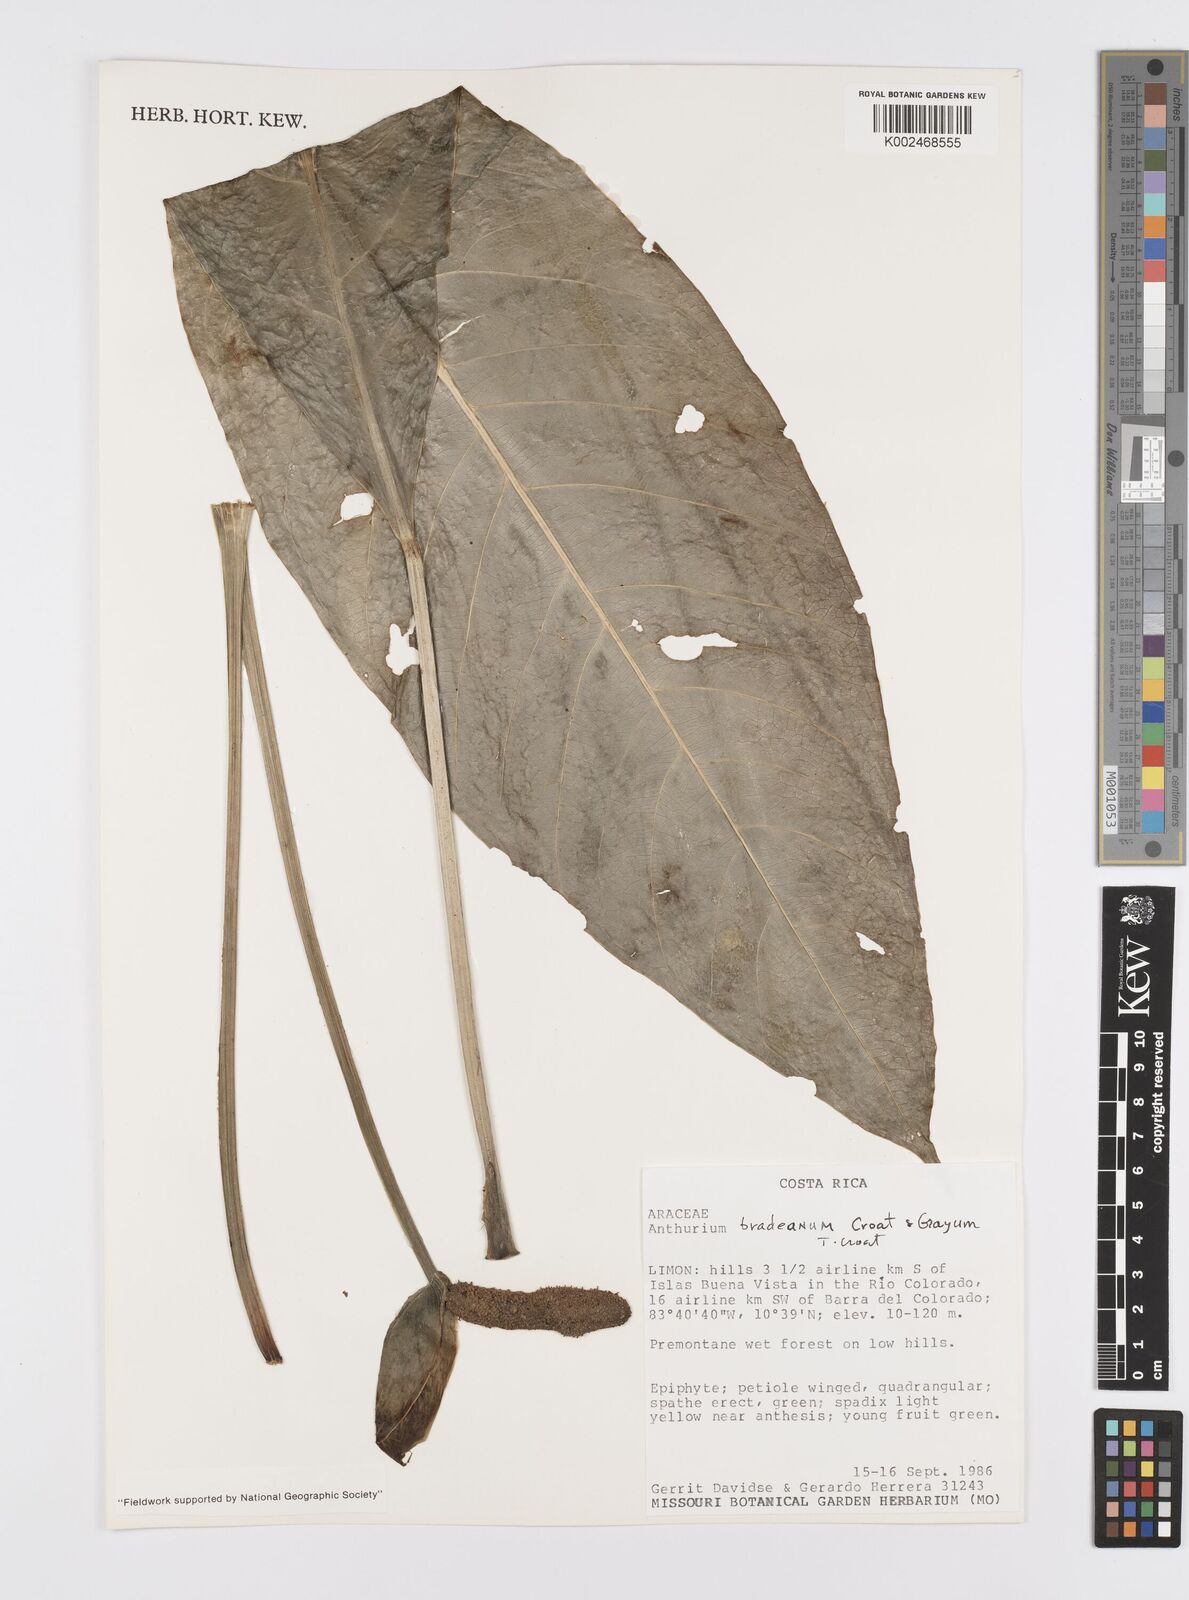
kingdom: Plantae
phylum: Tracheophyta
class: Liliopsida
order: Alismatales
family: Araceae
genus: Anthurium
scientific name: Anthurium bradeanum
